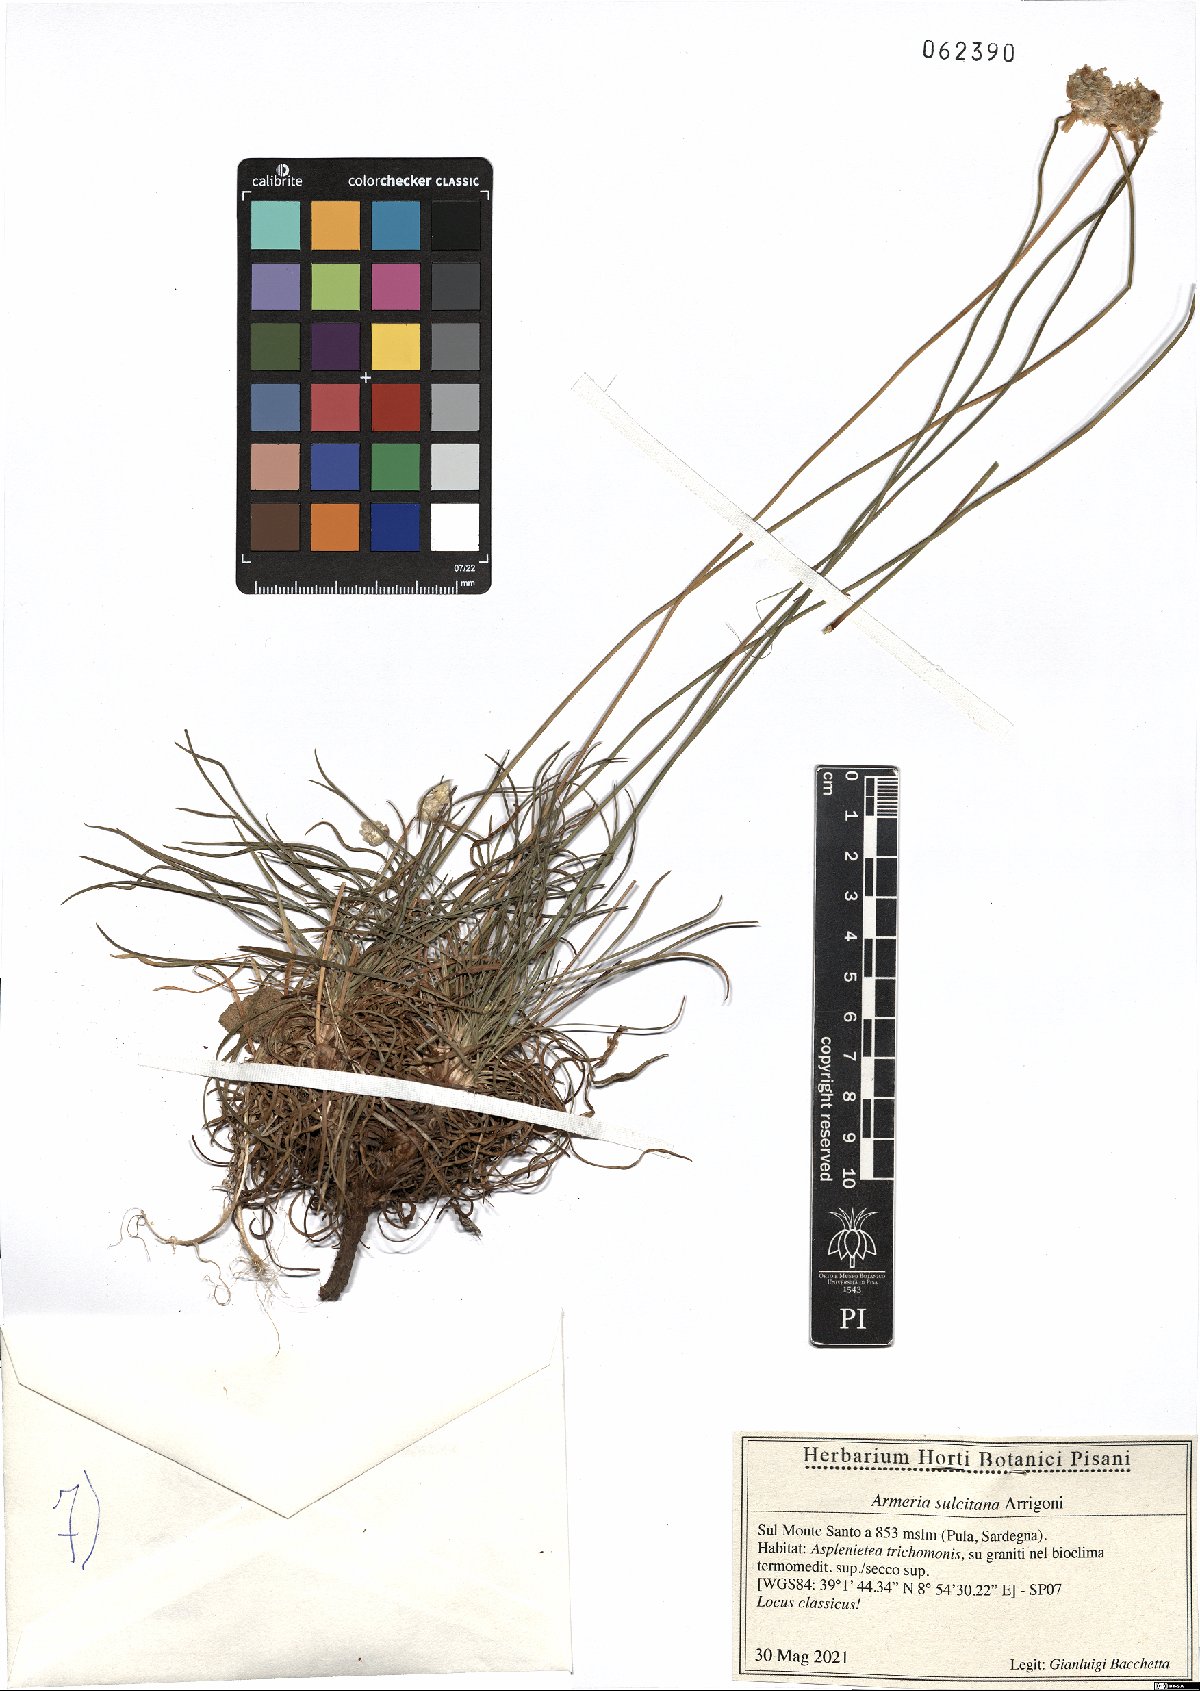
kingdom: Plantae
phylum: Tracheophyta
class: Magnoliopsida
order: Caryophyllales
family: Plumbaginaceae
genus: Armeria
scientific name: Armeria sulcitana
